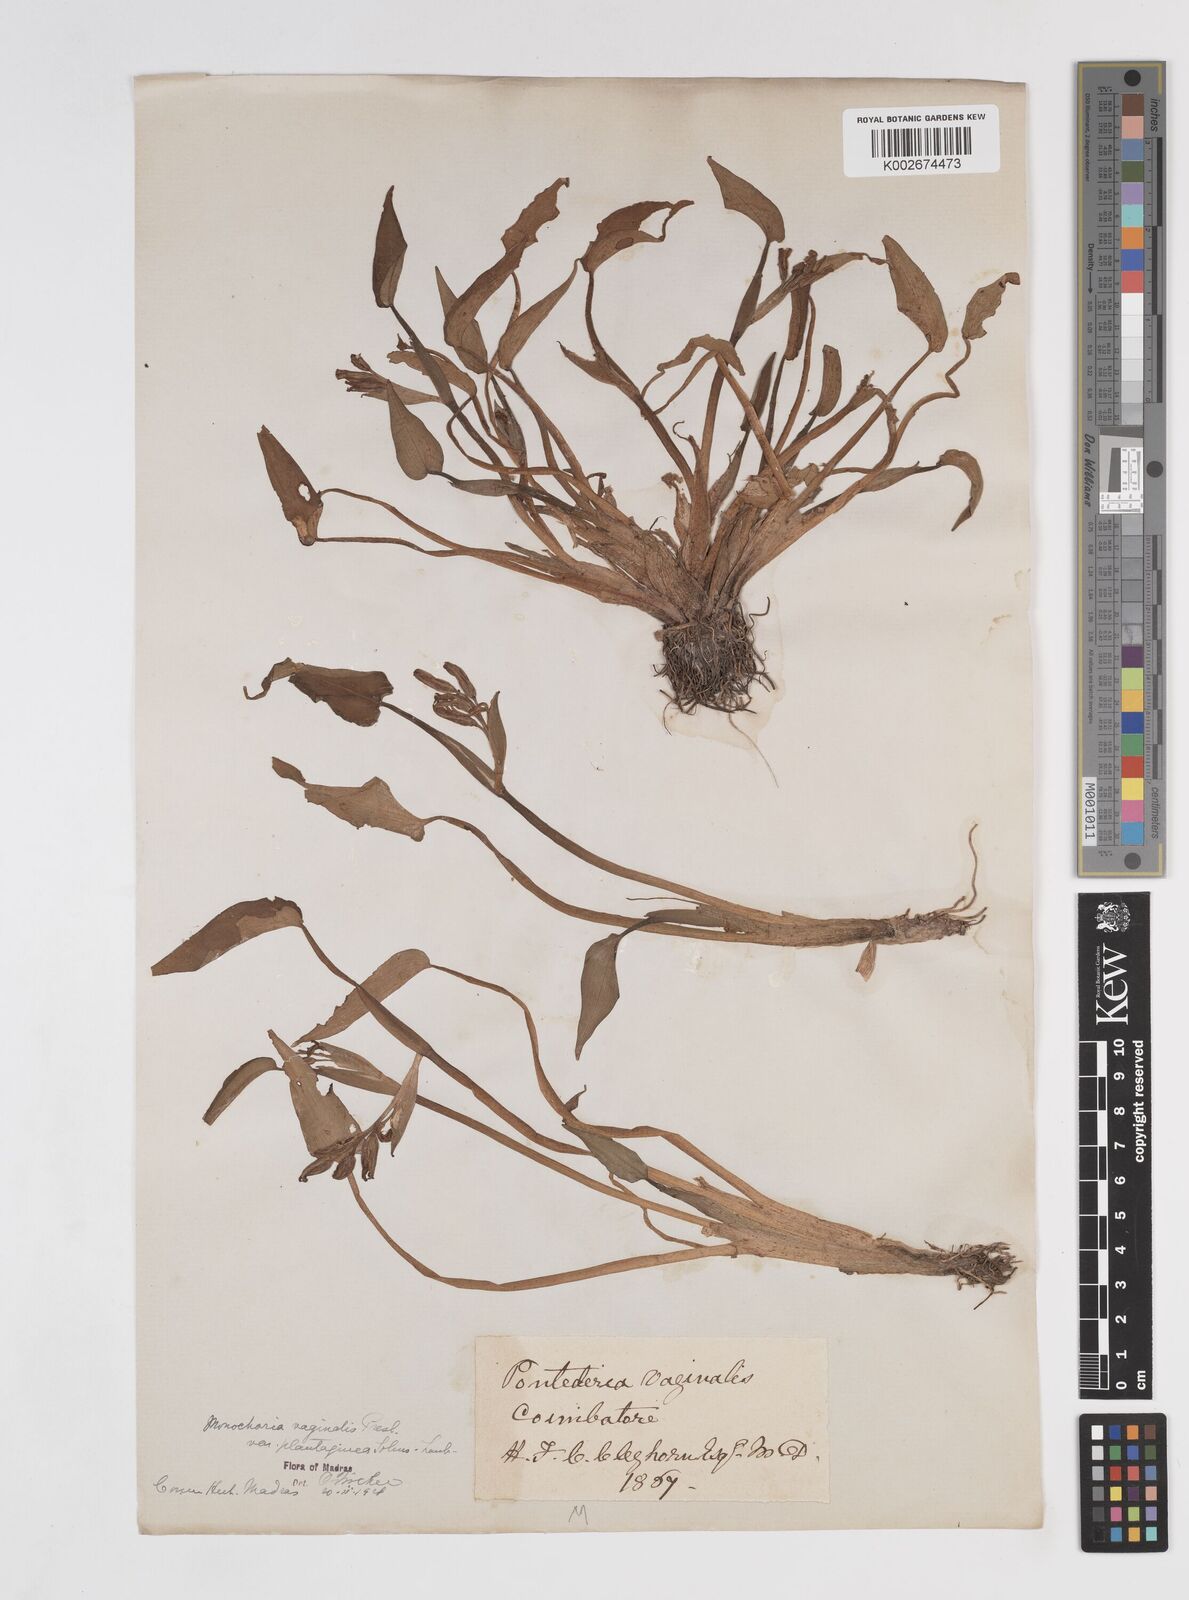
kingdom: Plantae
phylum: Tracheophyta
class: Liliopsida
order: Commelinales
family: Pontederiaceae
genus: Pontederia
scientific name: Pontederia vaginalis
